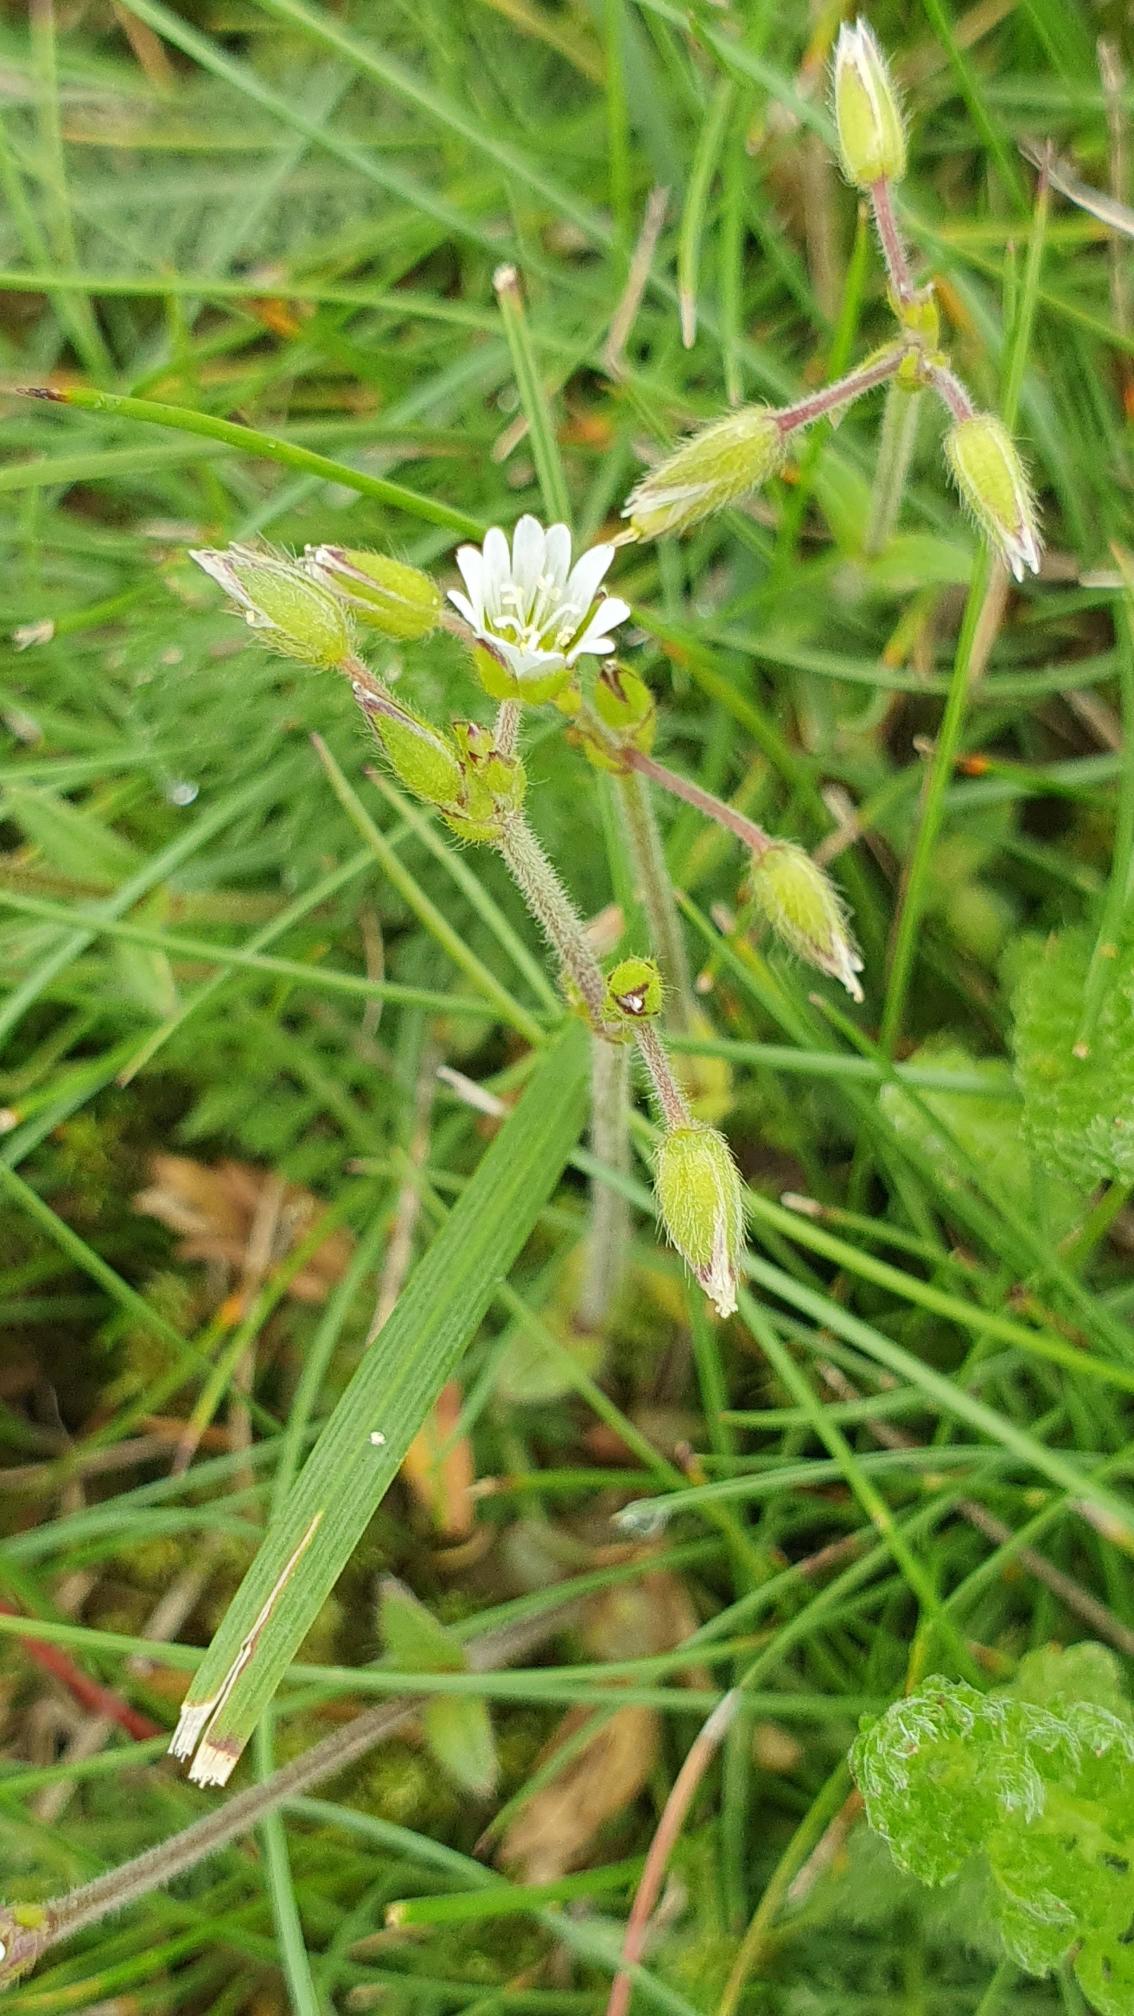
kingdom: Plantae
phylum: Tracheophyta
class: Magnoliopsida
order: Caryophyllales
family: Caryophyllaceae
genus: Cerastium
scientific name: Cerastium fontanum
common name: Almindelig hønsetarm
